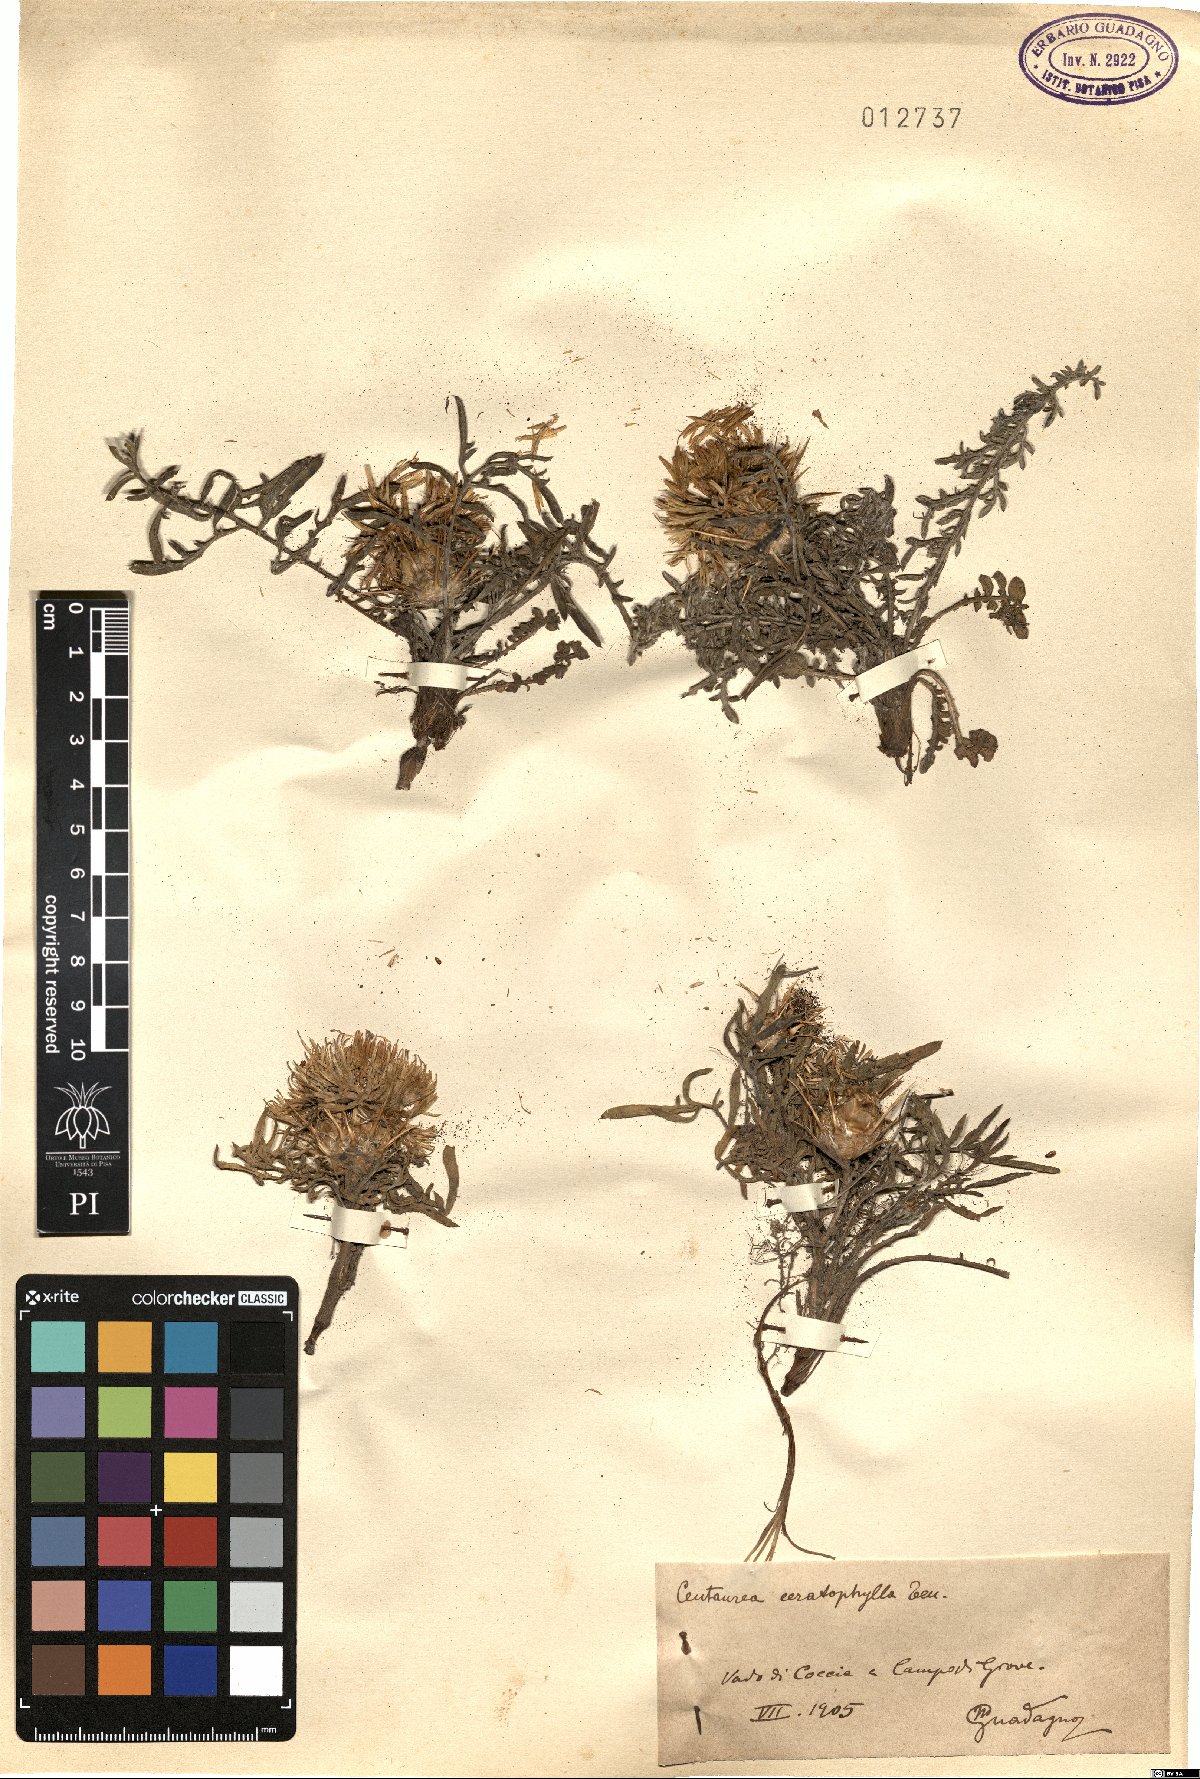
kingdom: Plantae
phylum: Tracheophyta
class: Magnoliopsida
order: Asterales
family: Asteraceae
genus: Centaurea
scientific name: Centaurea ceratophylla
